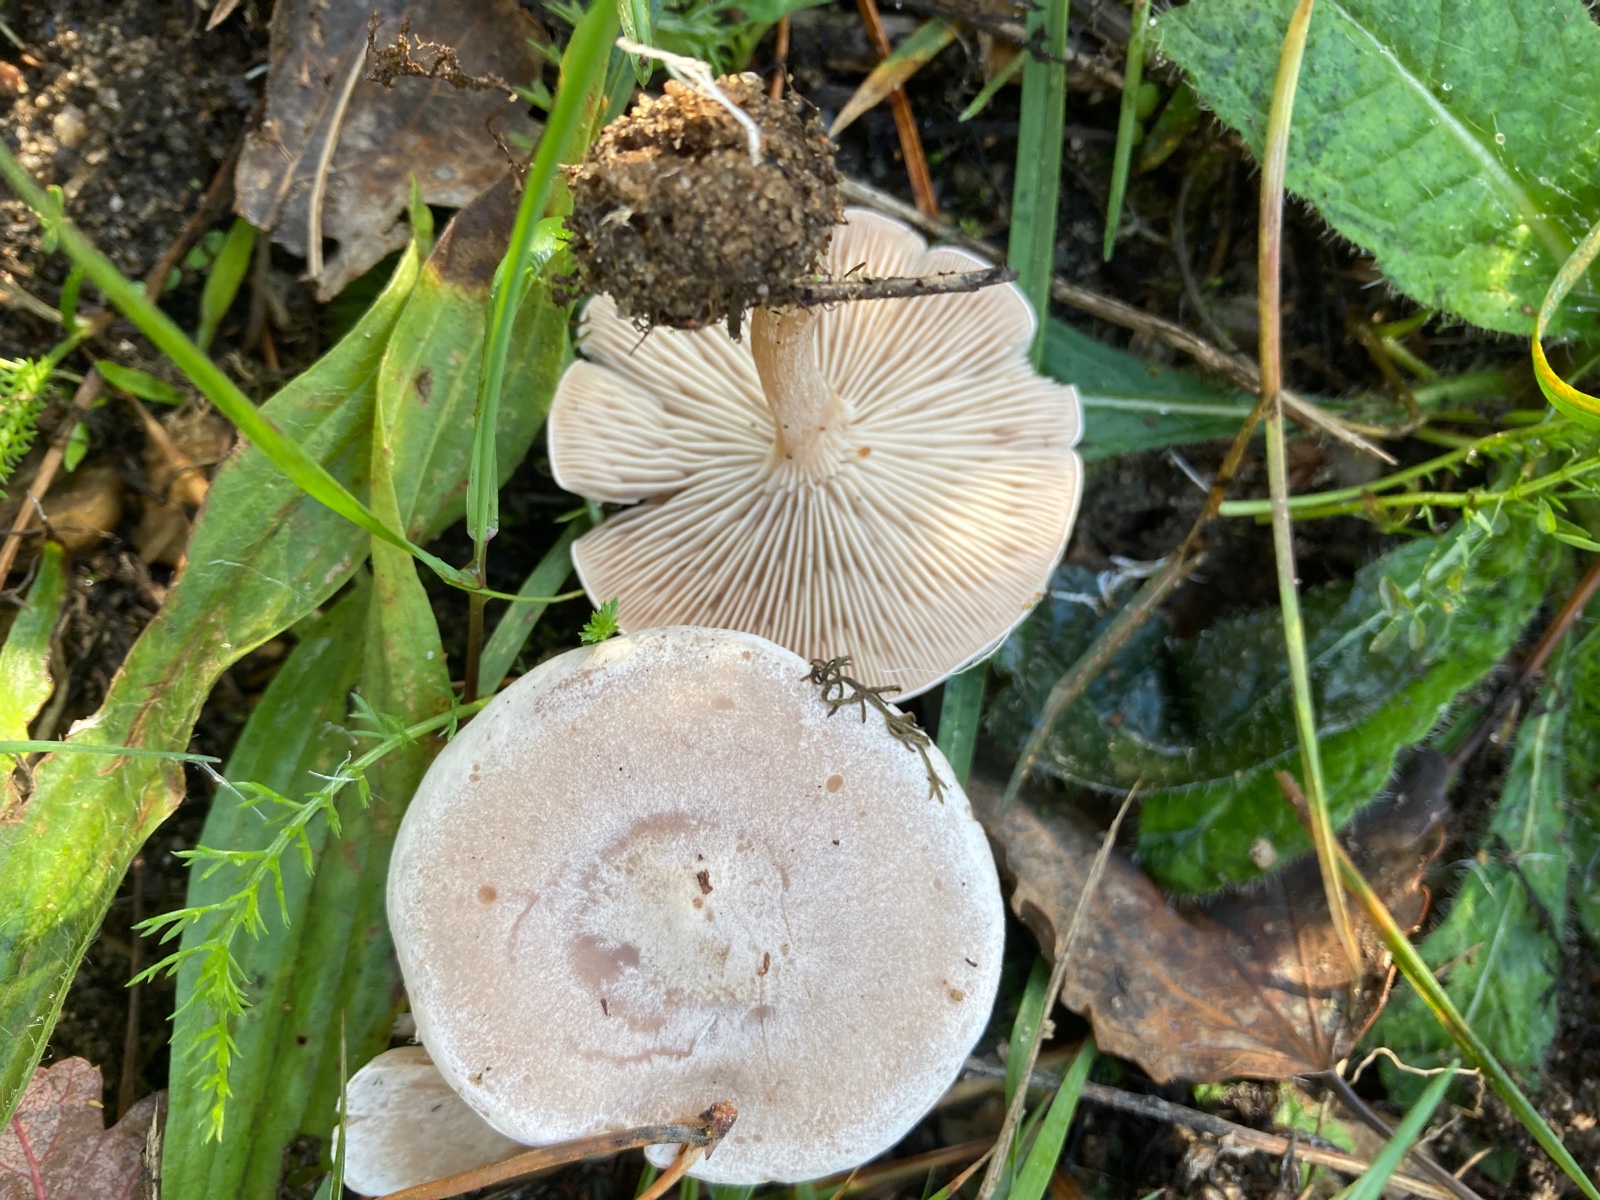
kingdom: Fungi
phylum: Basidiomycota
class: Agaricomycetes
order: Agaricales
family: Tricholomataceae
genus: Clitocybe
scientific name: Clitocybe rivulosa
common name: eng-tragthat
